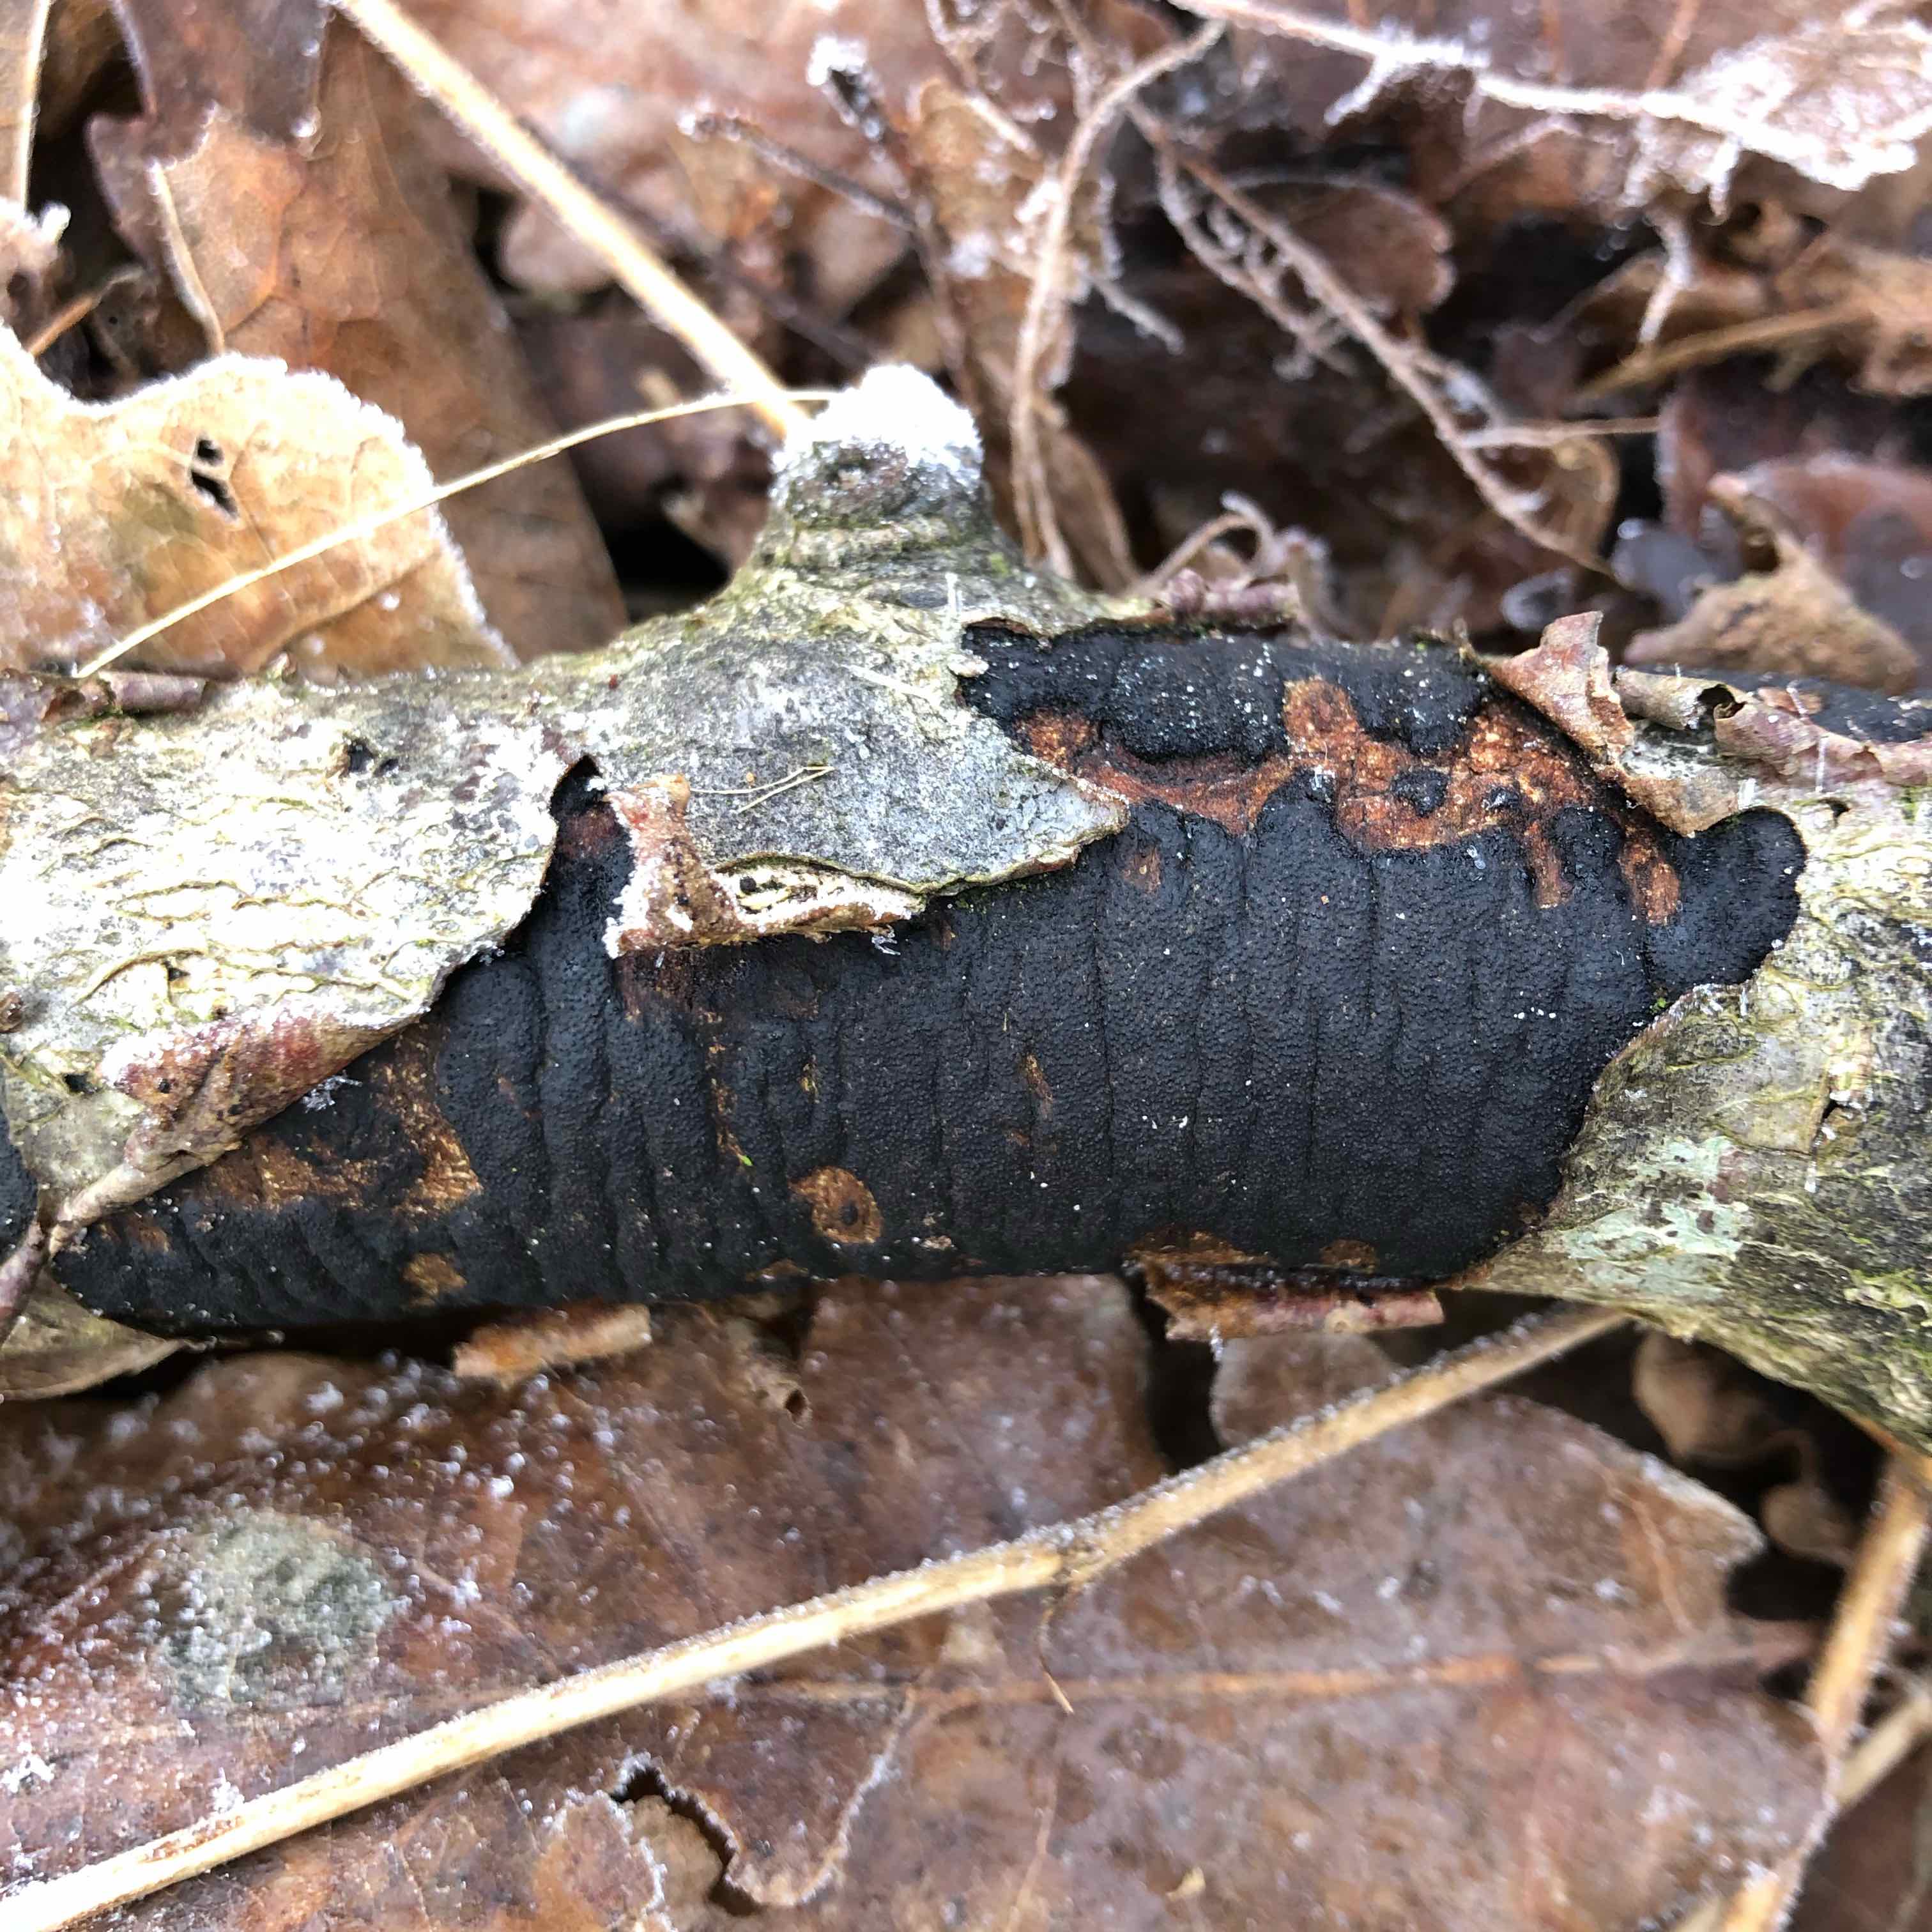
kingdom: Fungi
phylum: Ascomycota
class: Sordariomycetes
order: Xylariales
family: Diatrypaceae
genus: Diatrype
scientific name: Diatrype
